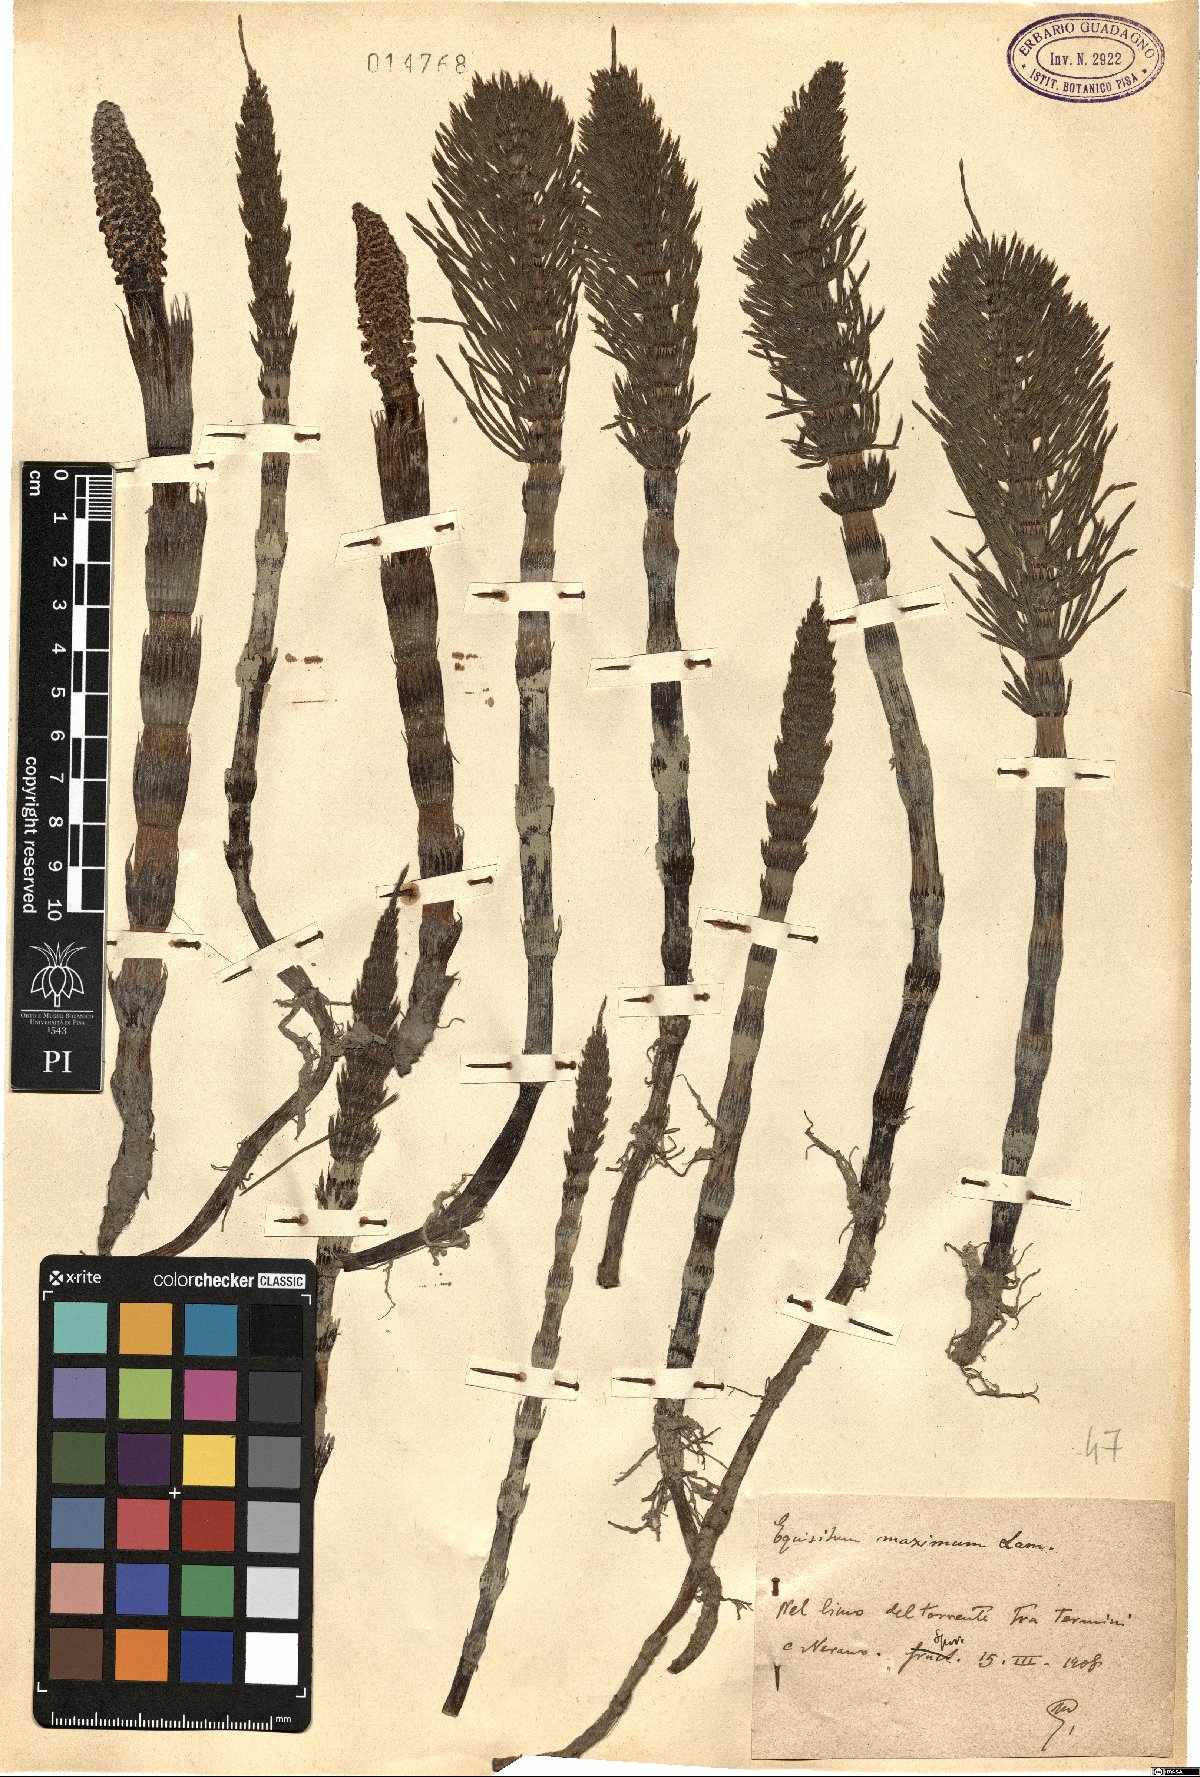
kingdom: Plantae
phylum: Tracheophyta
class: Polypodiopsida
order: Equisetales
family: Equisetaceae
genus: Equisetum
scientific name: Equisetum telmateia
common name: Great horsetail
